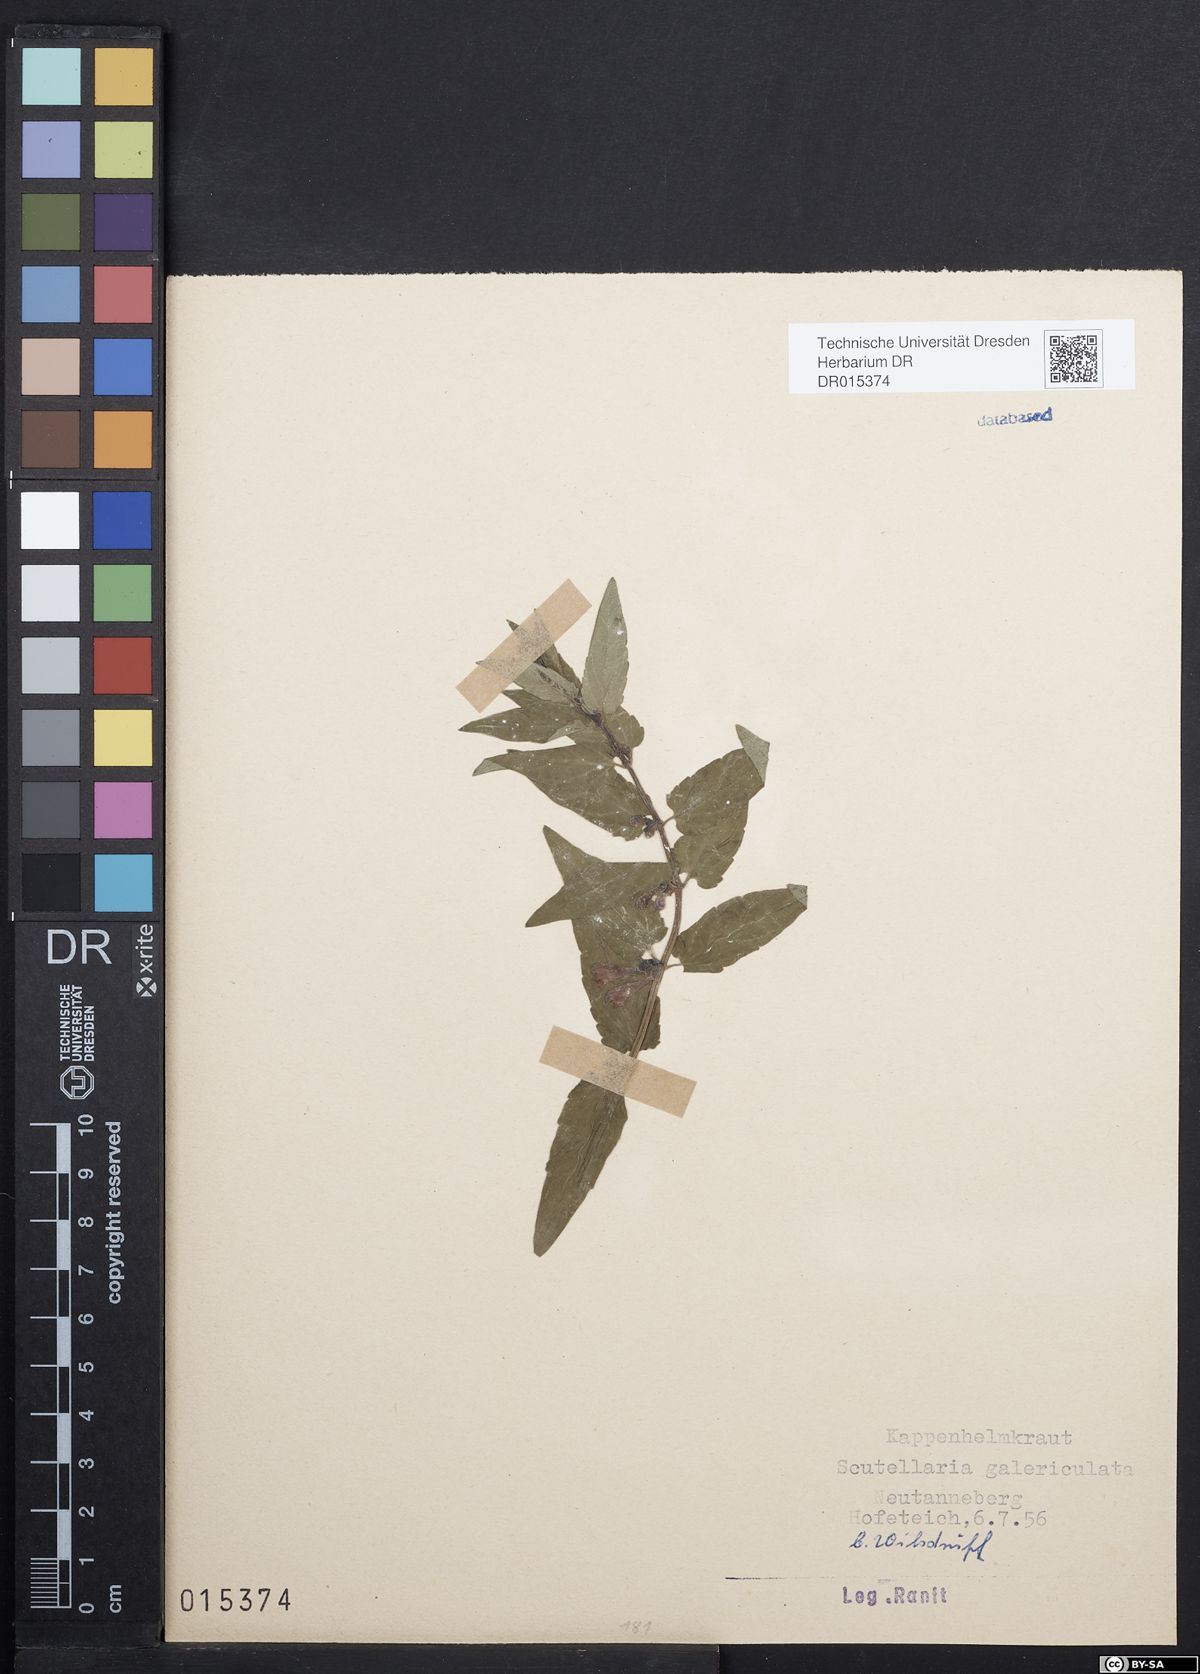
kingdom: Plantae
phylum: Tracheophyta
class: Magnoliopsida
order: Lamiales
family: Lamiaceae
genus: Scutellaria
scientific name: Scutellaria galericulata
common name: Skullcap
